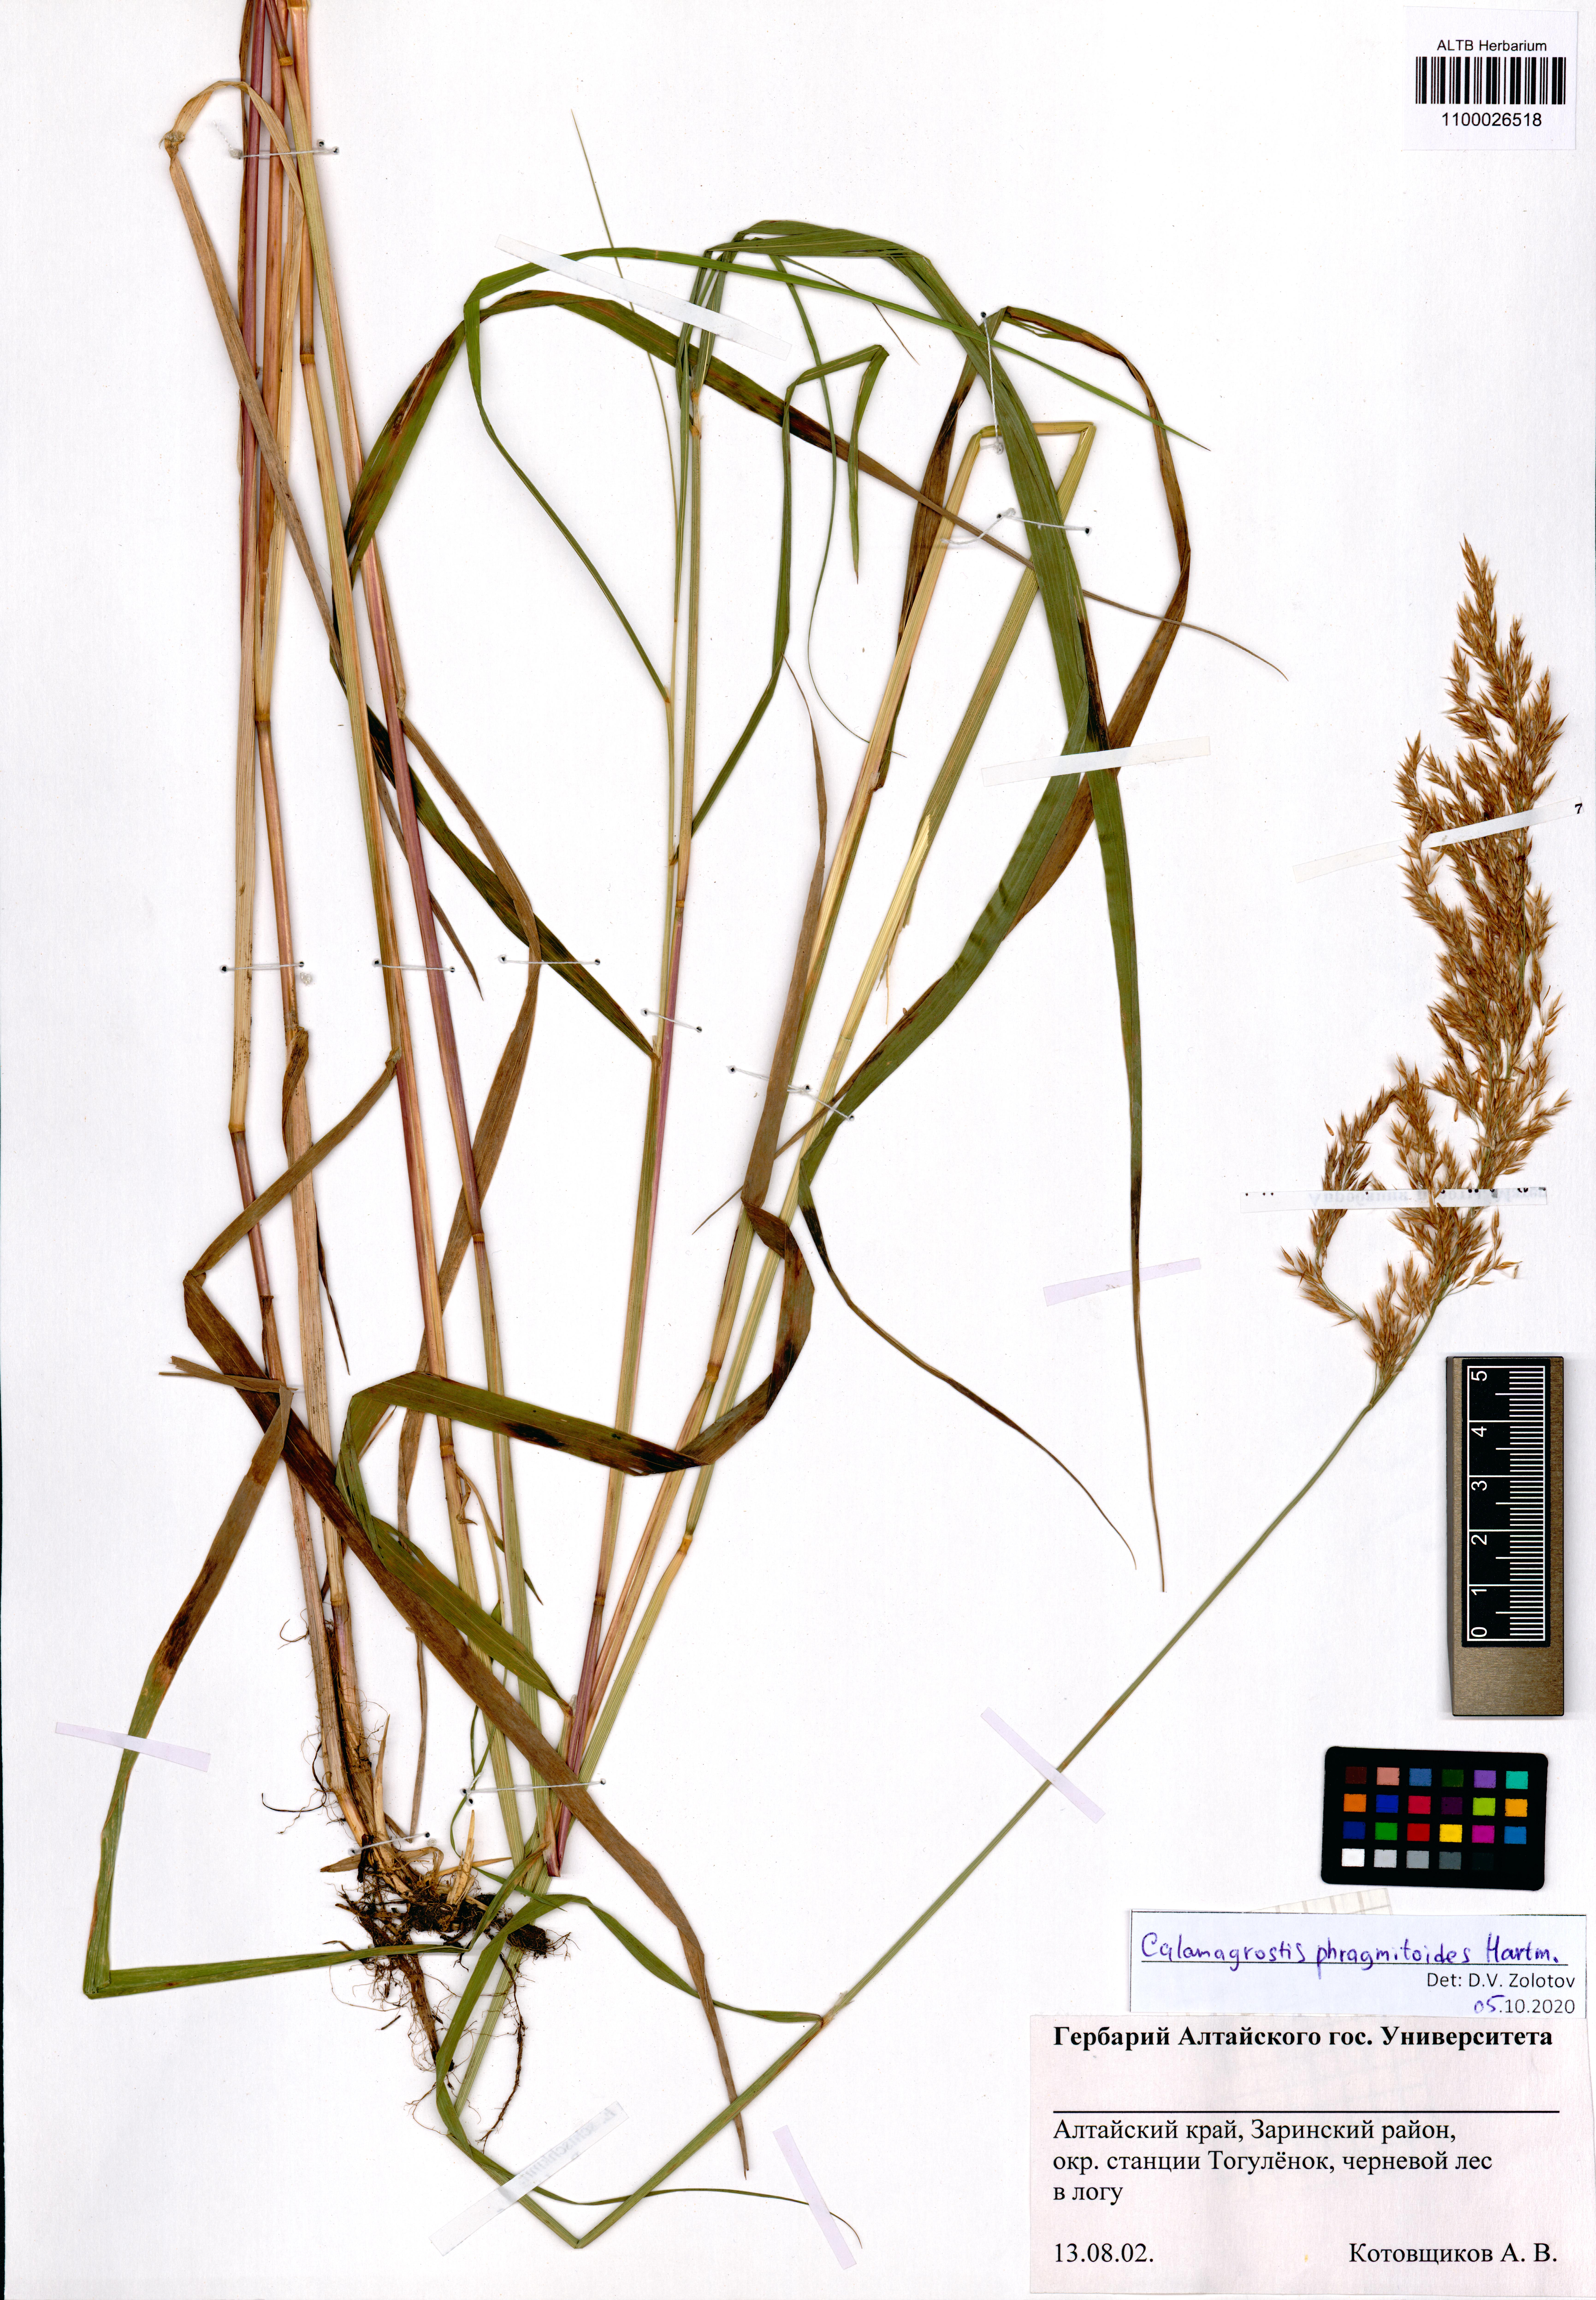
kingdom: Plantae
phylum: Tracheophyta
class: Liliopsida
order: Poales
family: Poaceae
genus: Calamagrostis
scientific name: Calamagrostis purpurea
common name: Scandinavian small-reed
